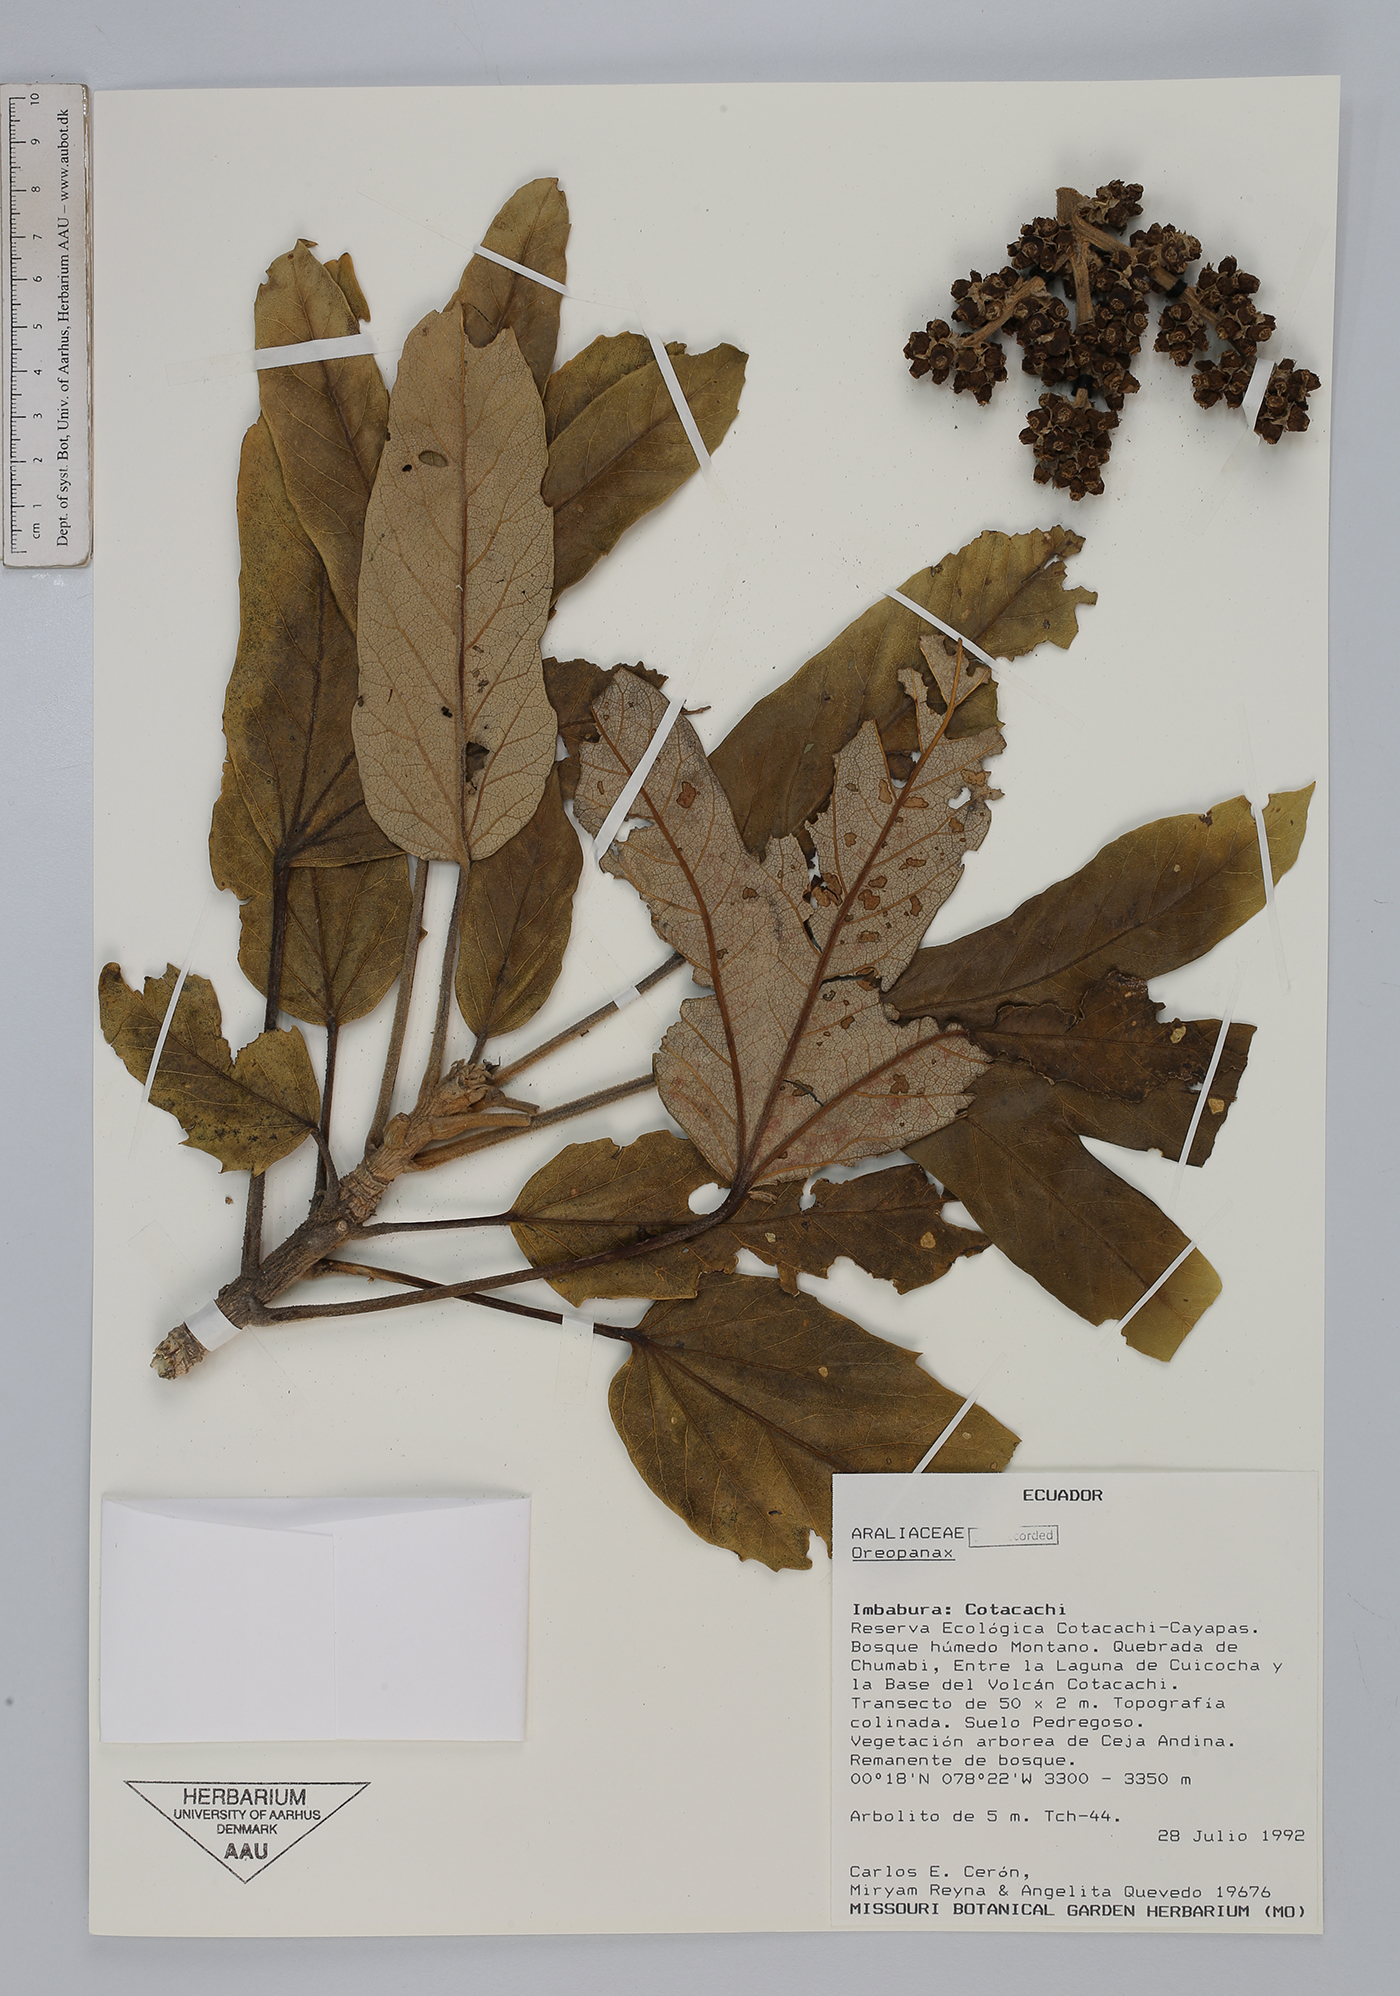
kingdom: Plantae
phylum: Tracheophyta
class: Magnoliopsida
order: Apiales
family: Araliaceae
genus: Oreopanax
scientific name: Oreopanax
